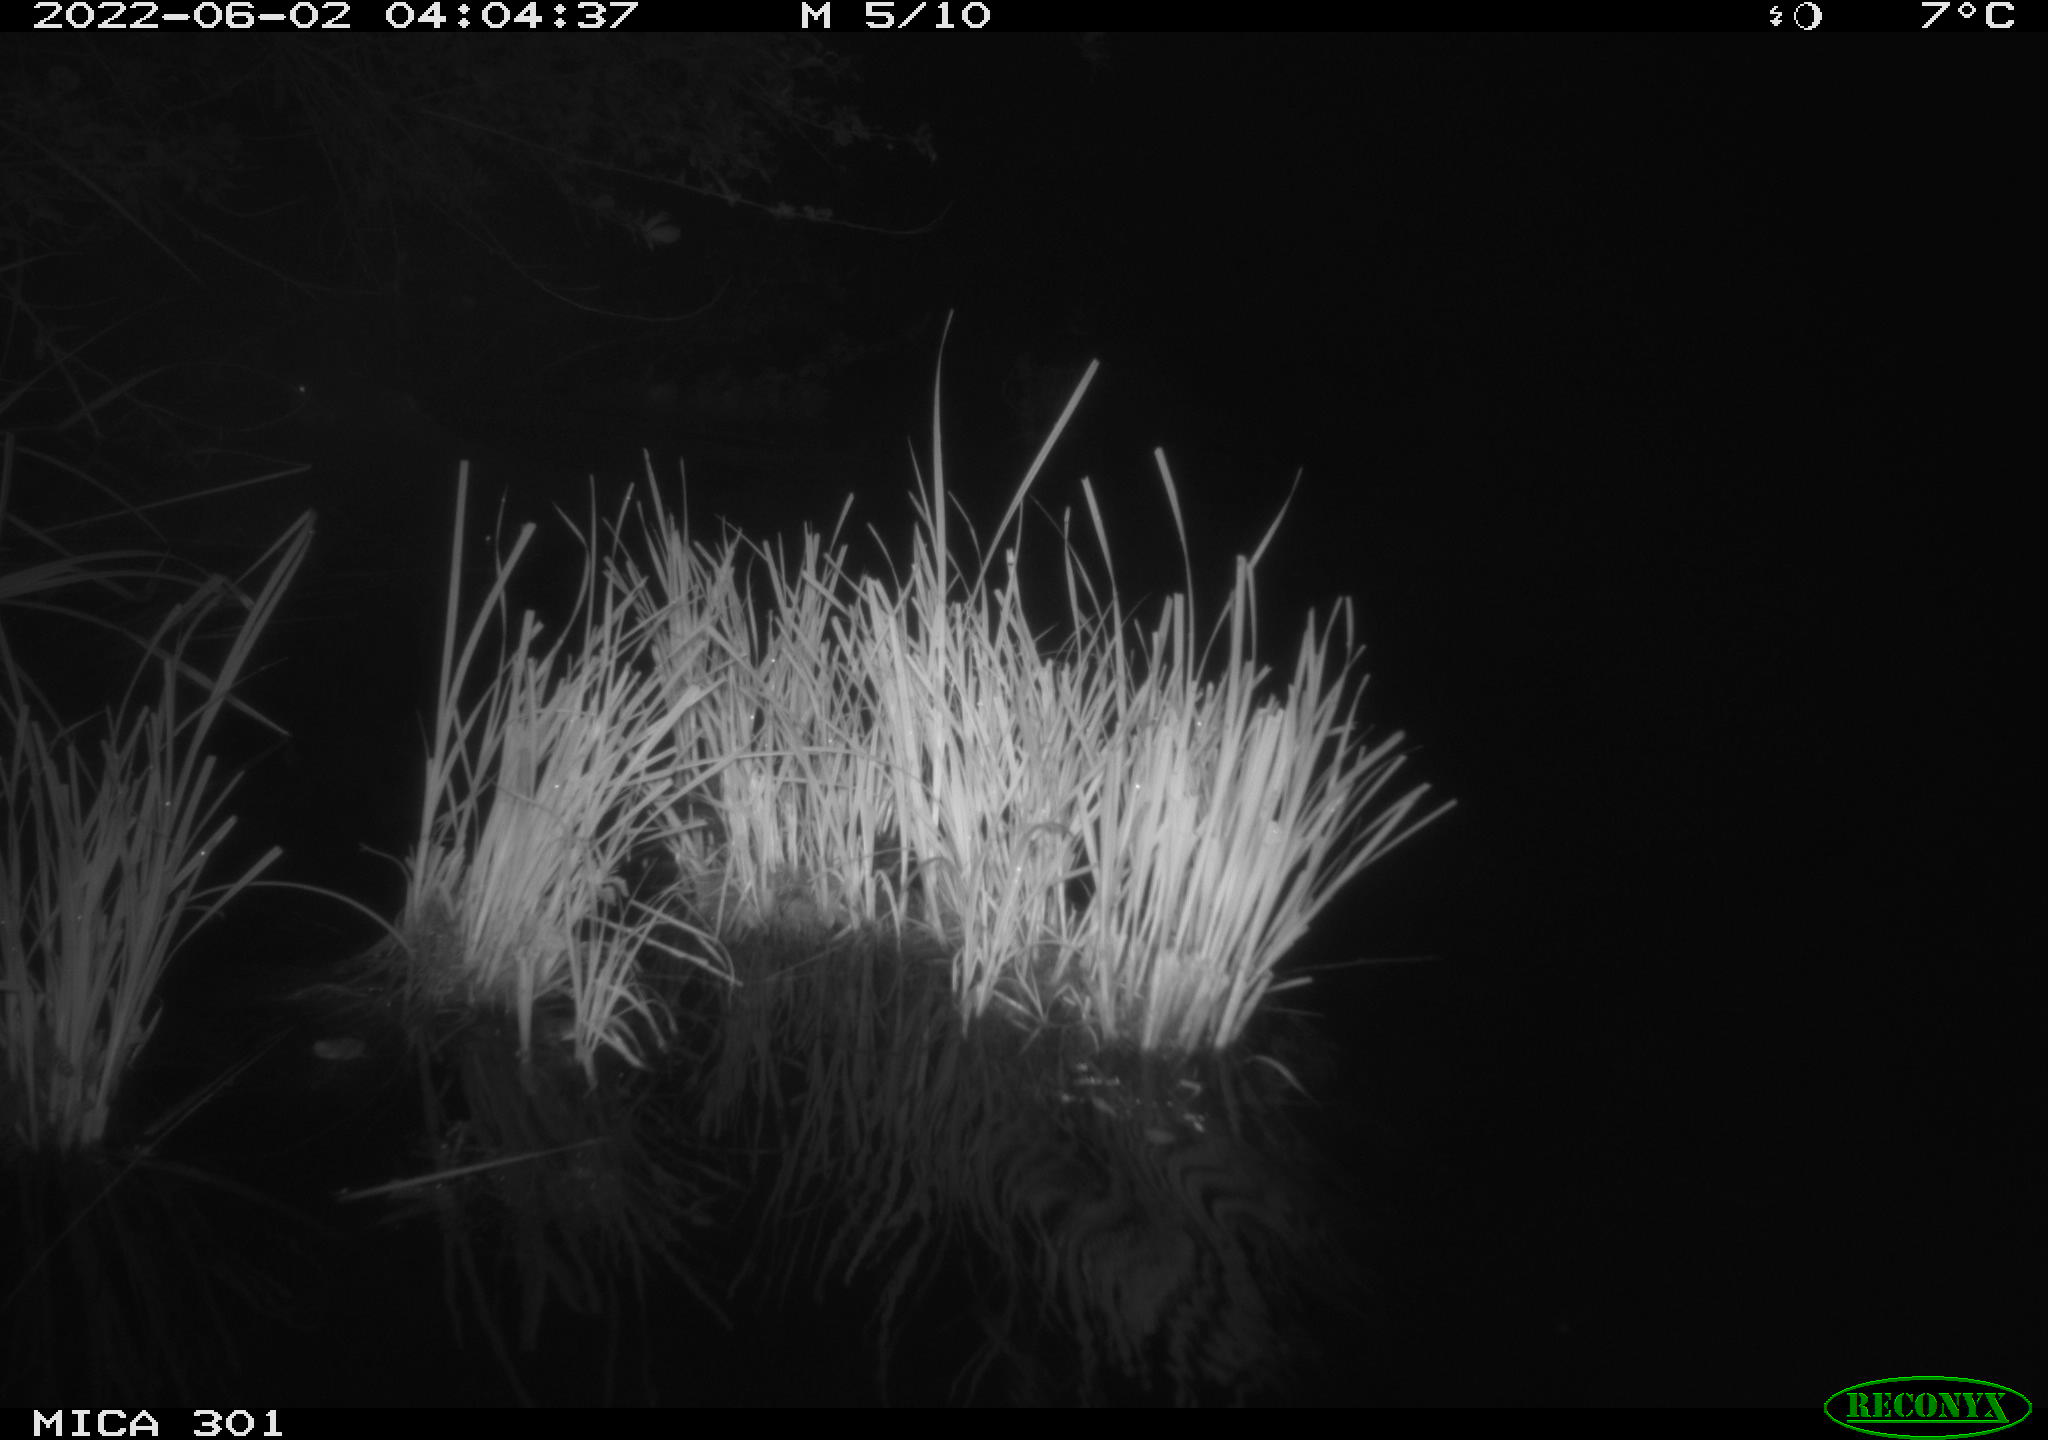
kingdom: Animalia
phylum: Chordata
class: Mammalia
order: Rodentia
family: Castoridae
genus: Castor
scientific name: Castor fiber
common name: Eurasian beaver
